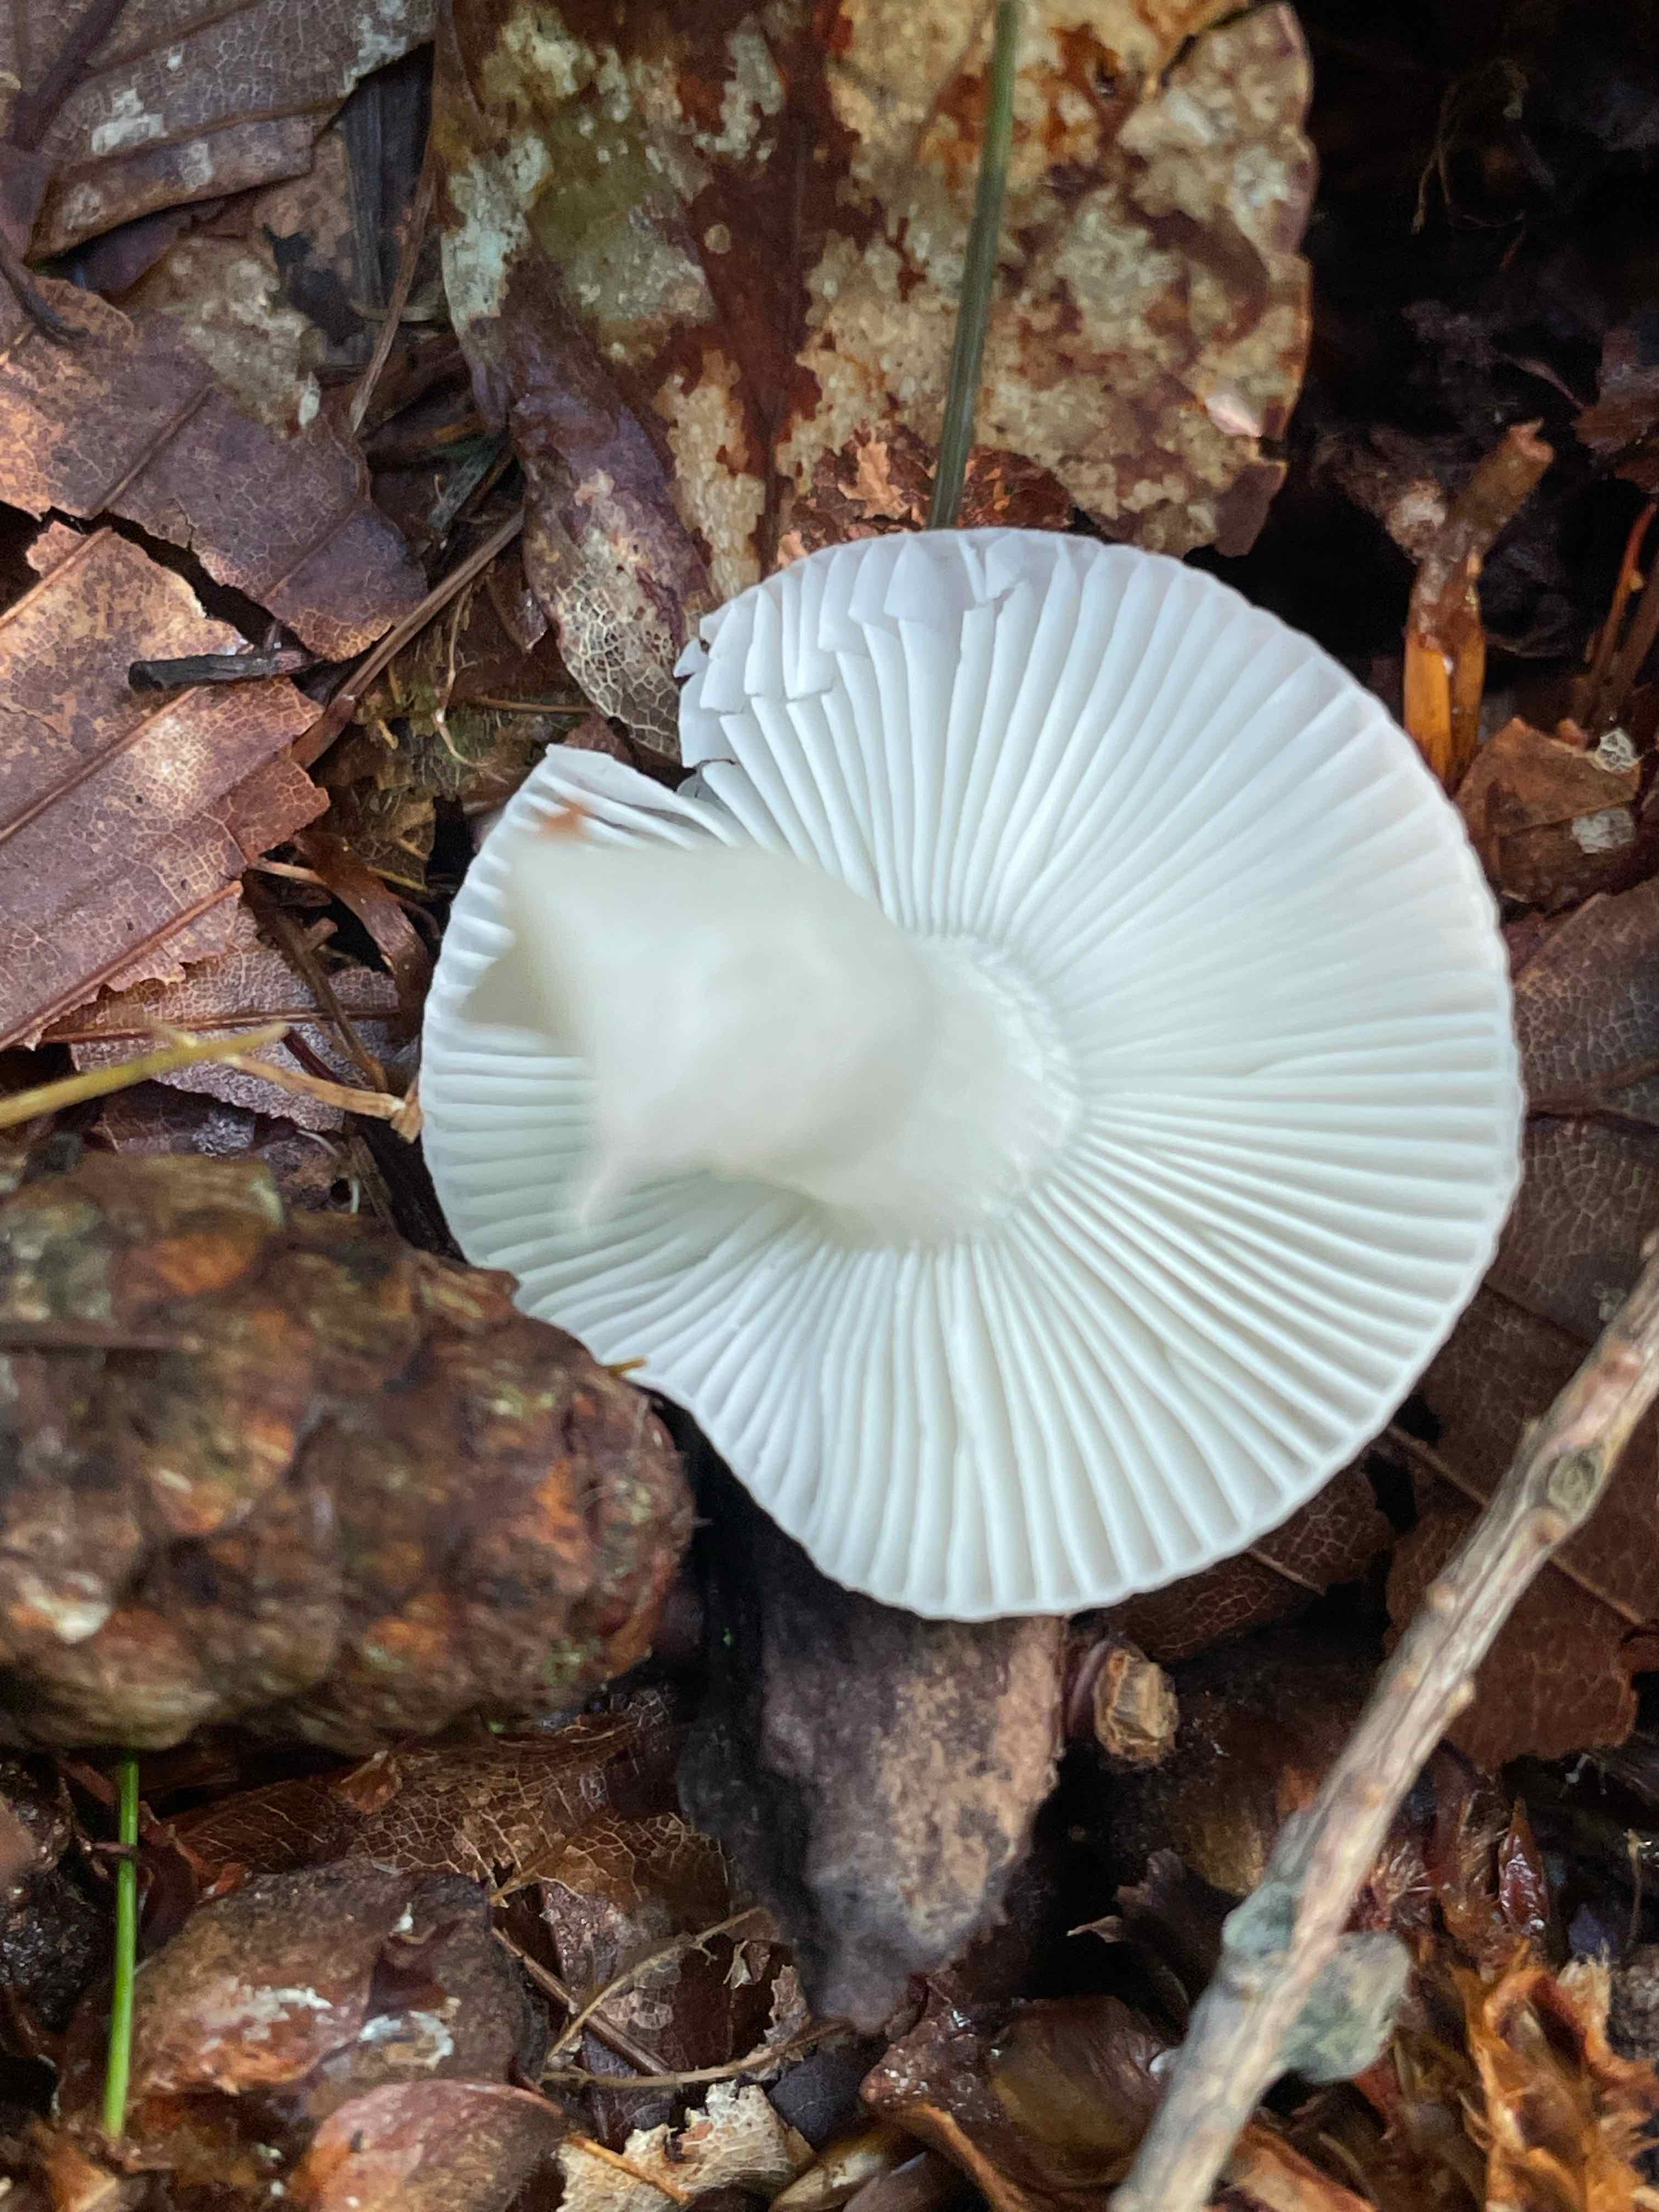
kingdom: Fungi
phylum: Basidiomycota
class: Agaricomycetes
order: Russulales
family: Russulaceae
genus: Russula
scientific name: Russula
